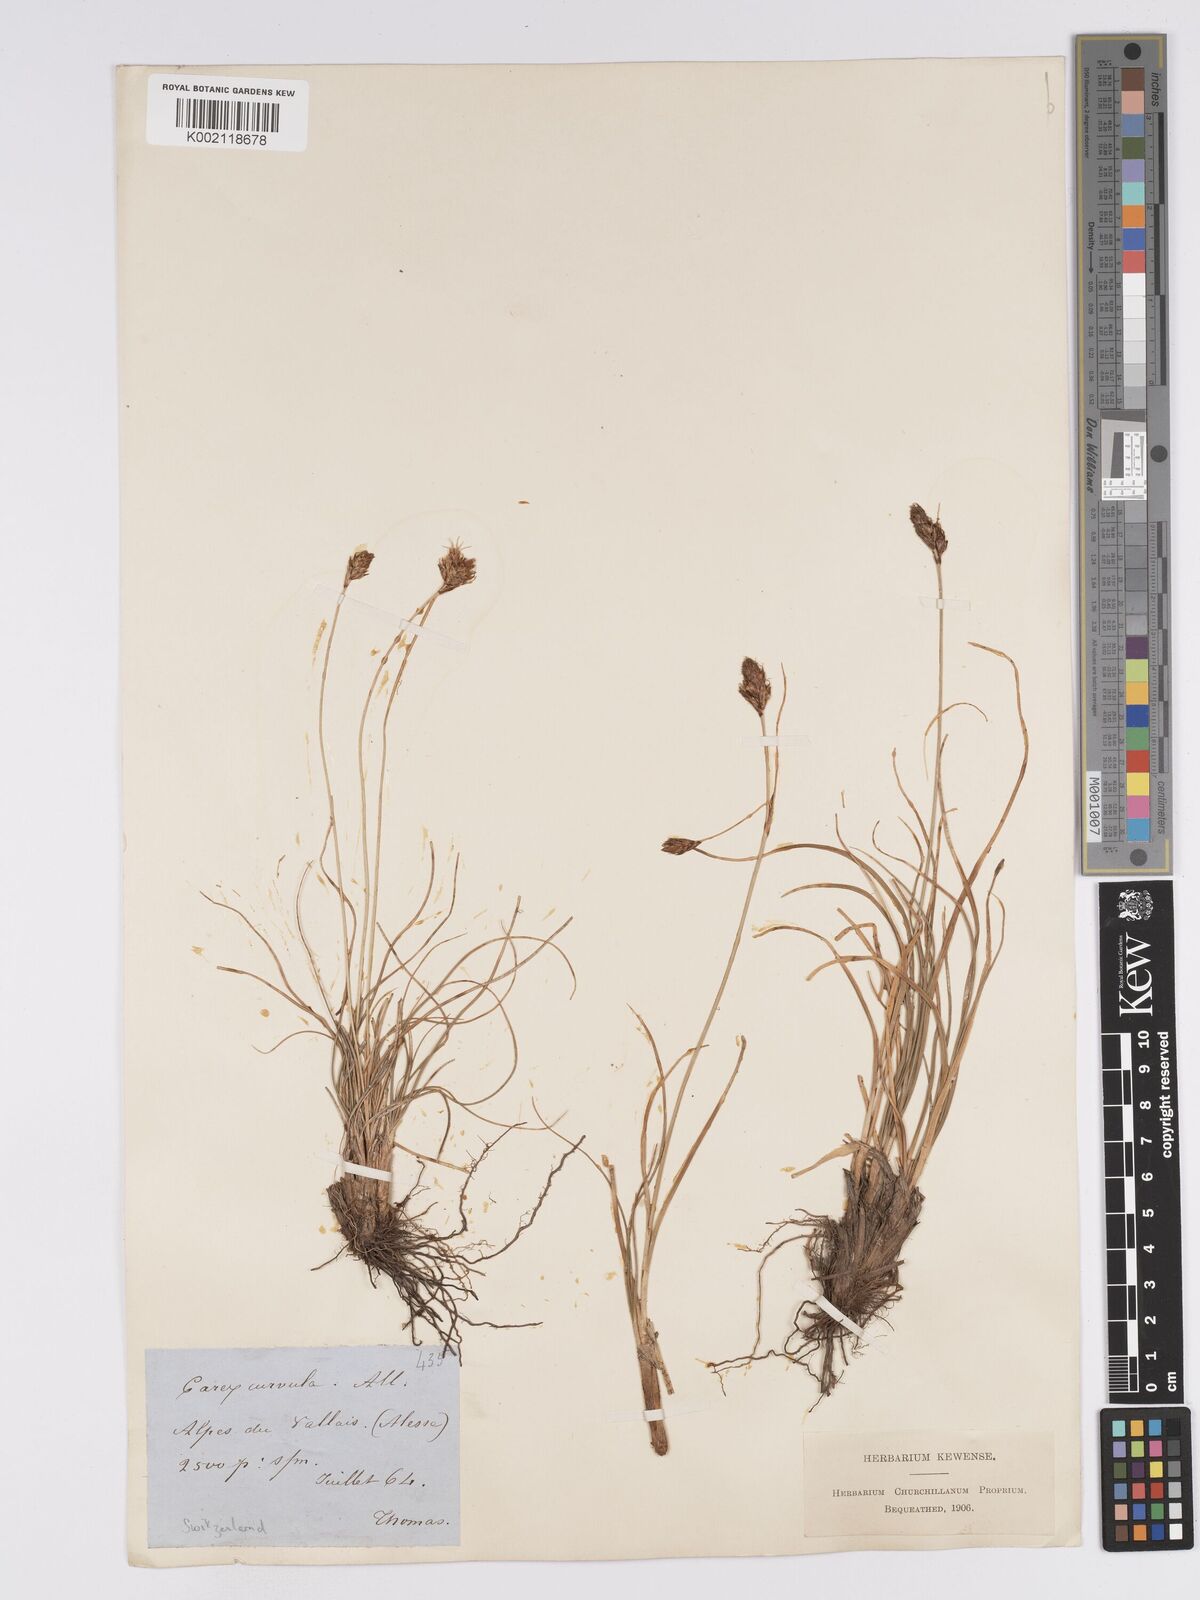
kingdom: Plantae
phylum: Tracheophyta
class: Liliopsida
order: Poales
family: Cyperaceae
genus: Carex
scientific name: Carex curvula
